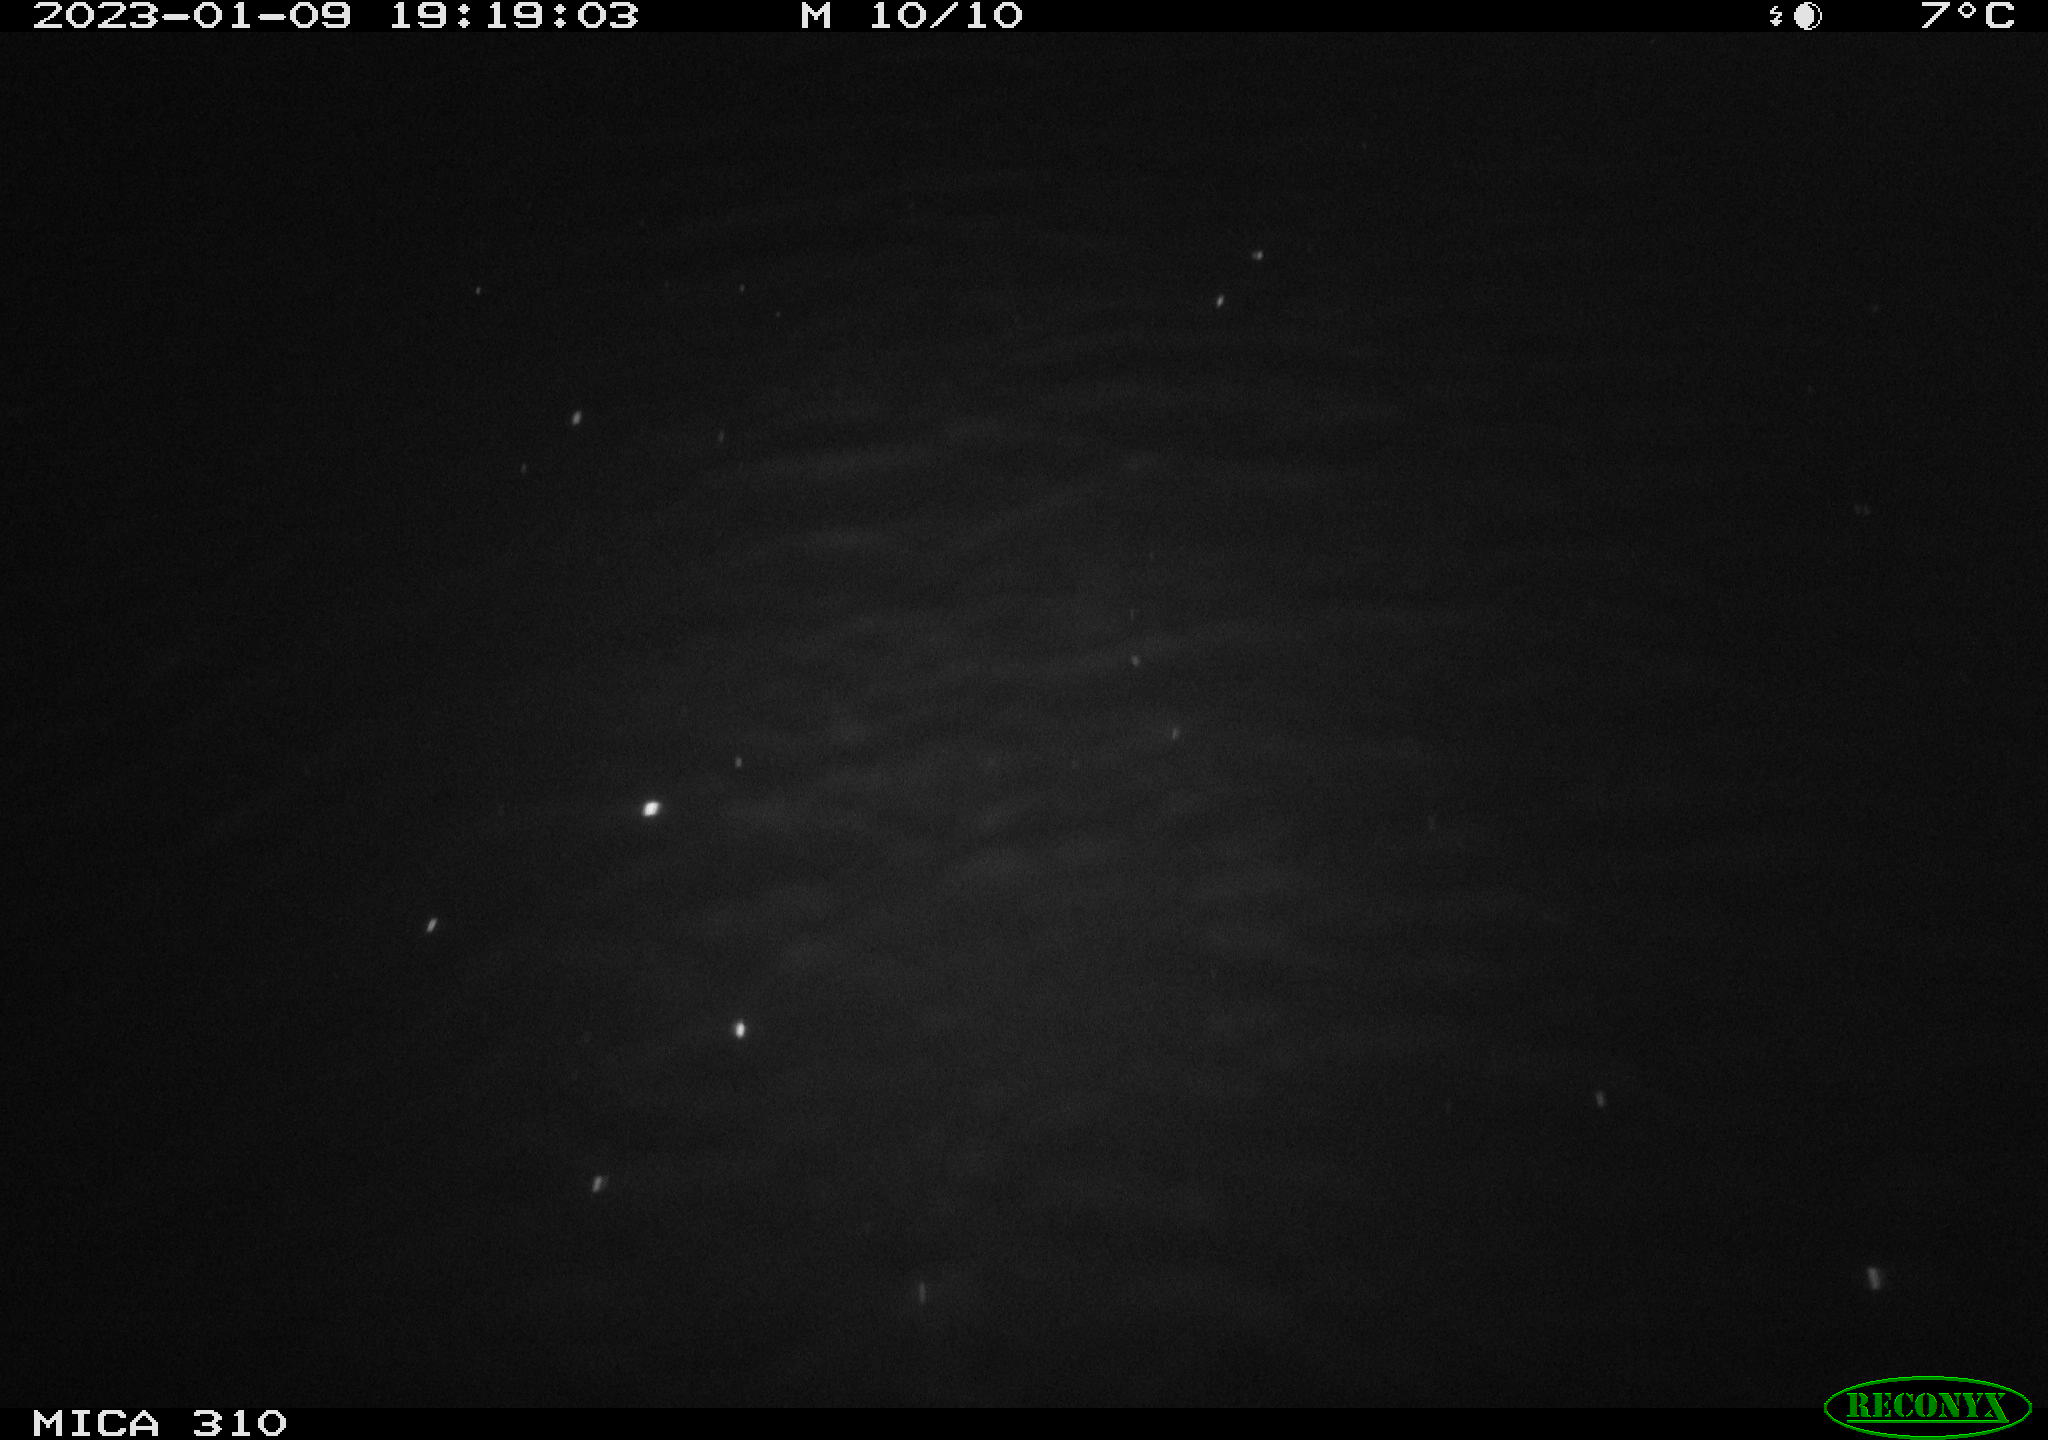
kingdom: Animalia
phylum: Chordata
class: Mammalia
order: Rodentia
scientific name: Rodentia
